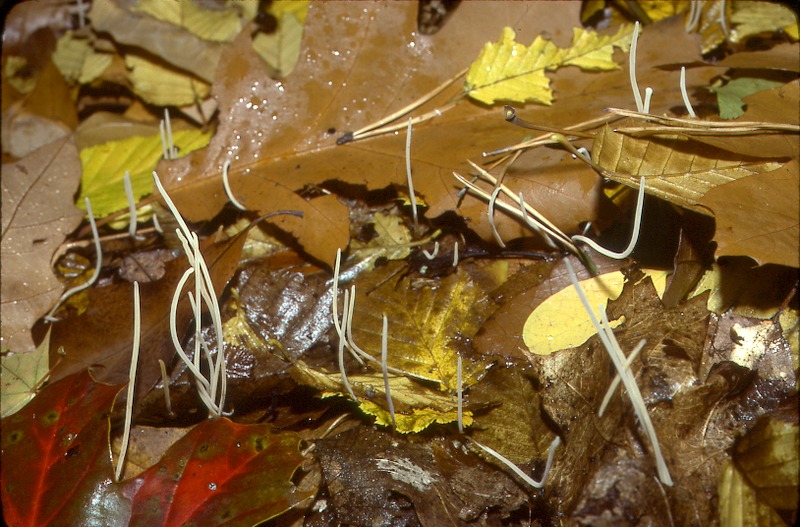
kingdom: Plantae
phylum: Tracheophyta
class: Magnoliopsida
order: Fagales
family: Fagaceae
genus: Quercus
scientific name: Quercus
